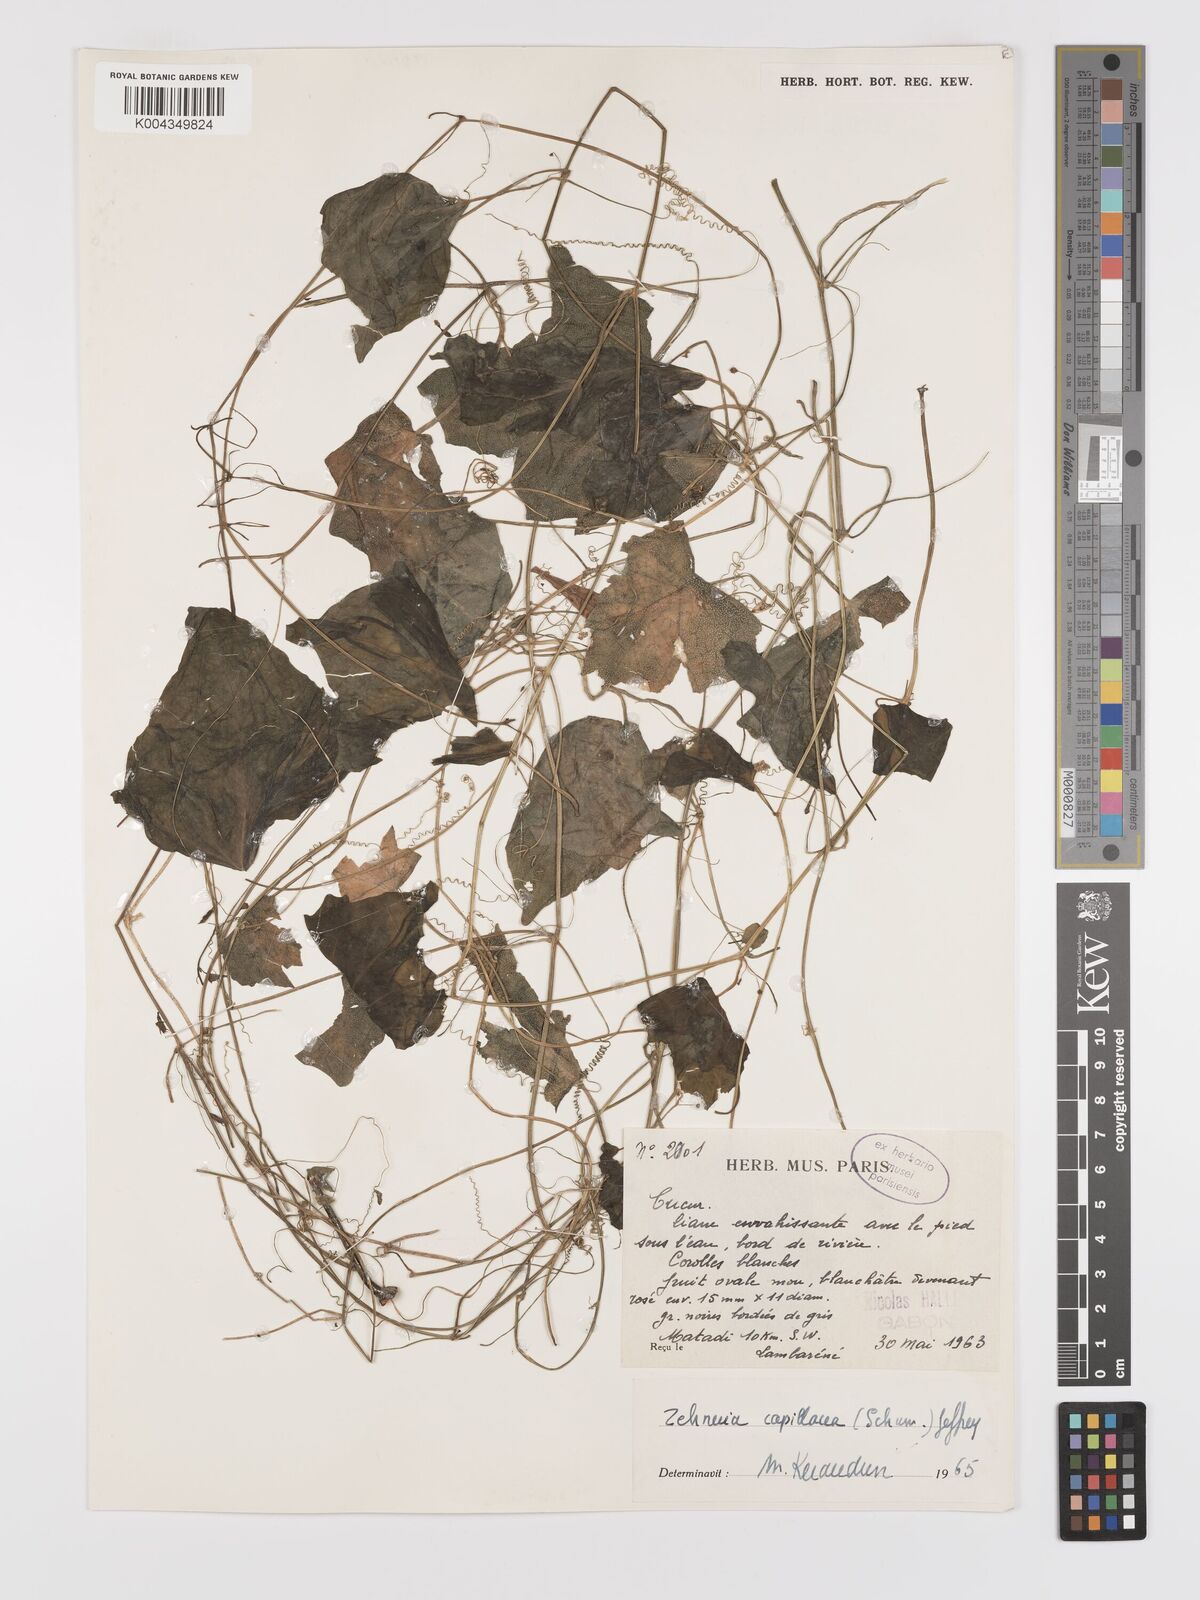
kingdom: Plantae
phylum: Tracheophyta
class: Magnoliopsida
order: Cucurbitales
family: Cucurbitaceae
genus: Zehneria
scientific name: Zehneria capillacea
